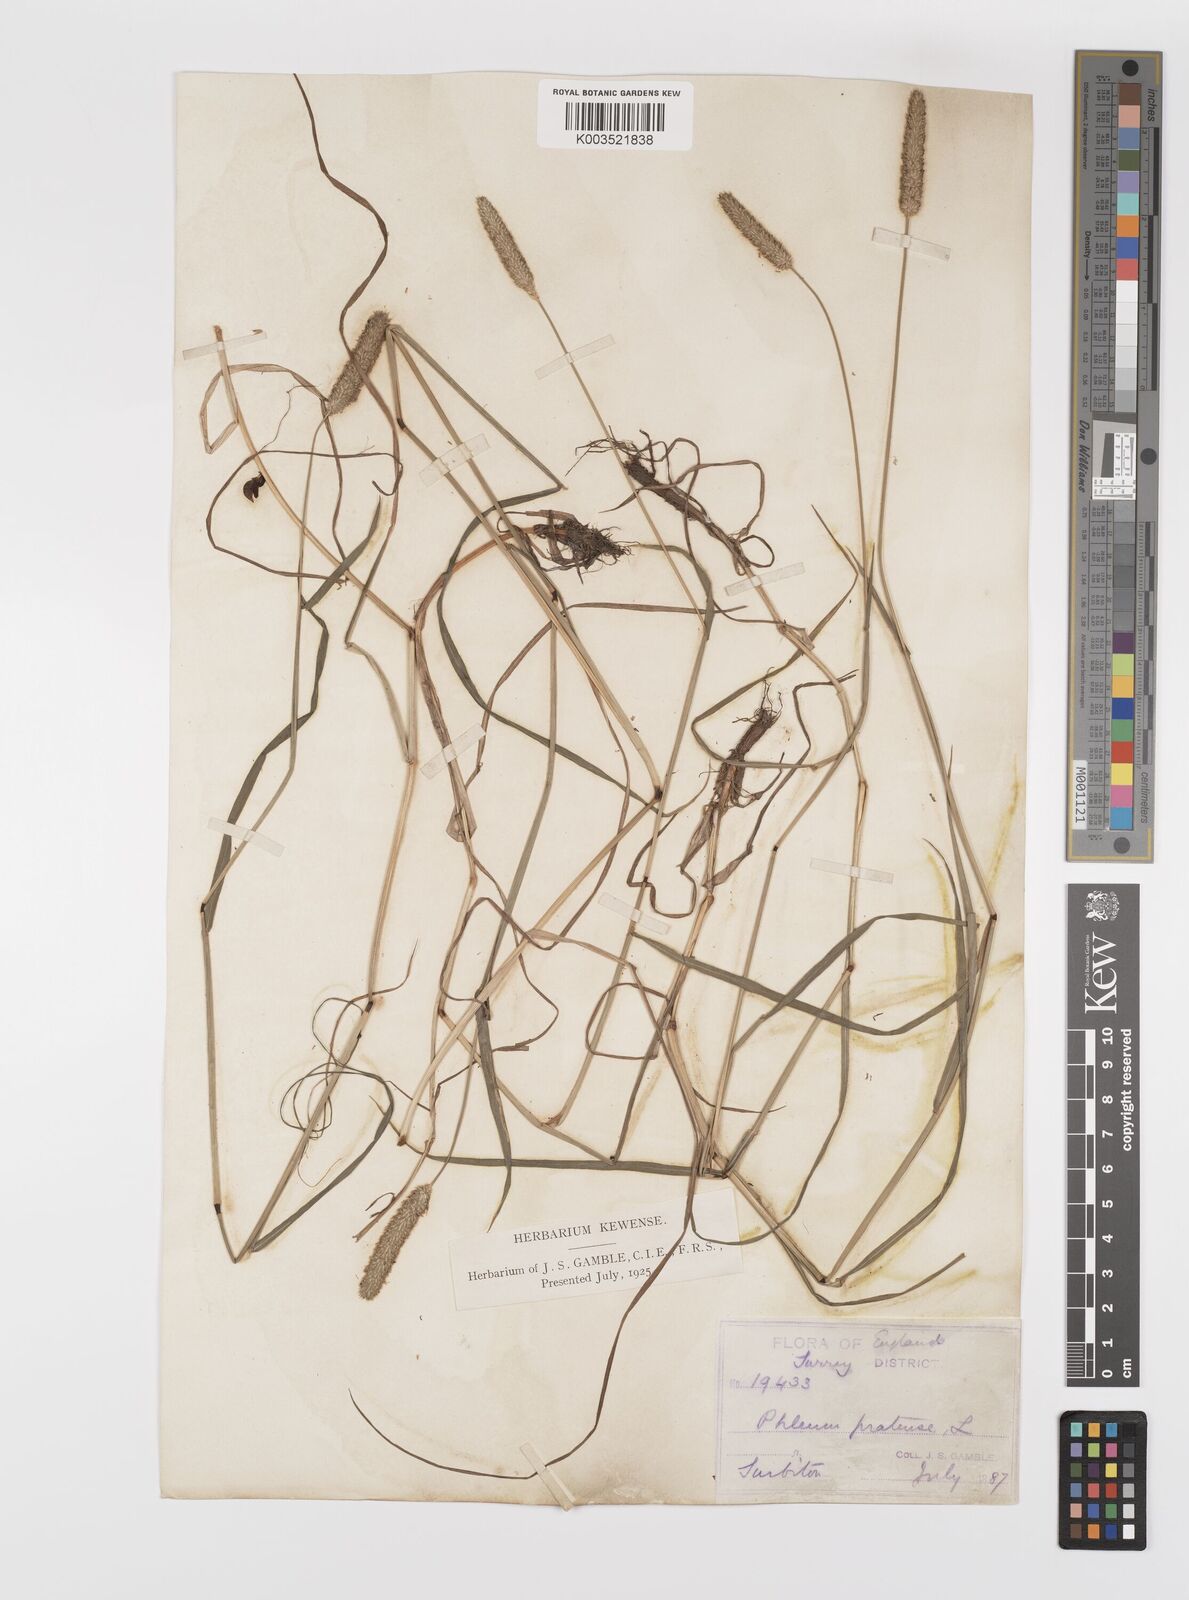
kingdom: Plantae
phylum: Tracheophyta
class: Liliopsida
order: Poales
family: Poaceae
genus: Phleum
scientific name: Phleum bertolonii
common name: Smaller cat's-tail
